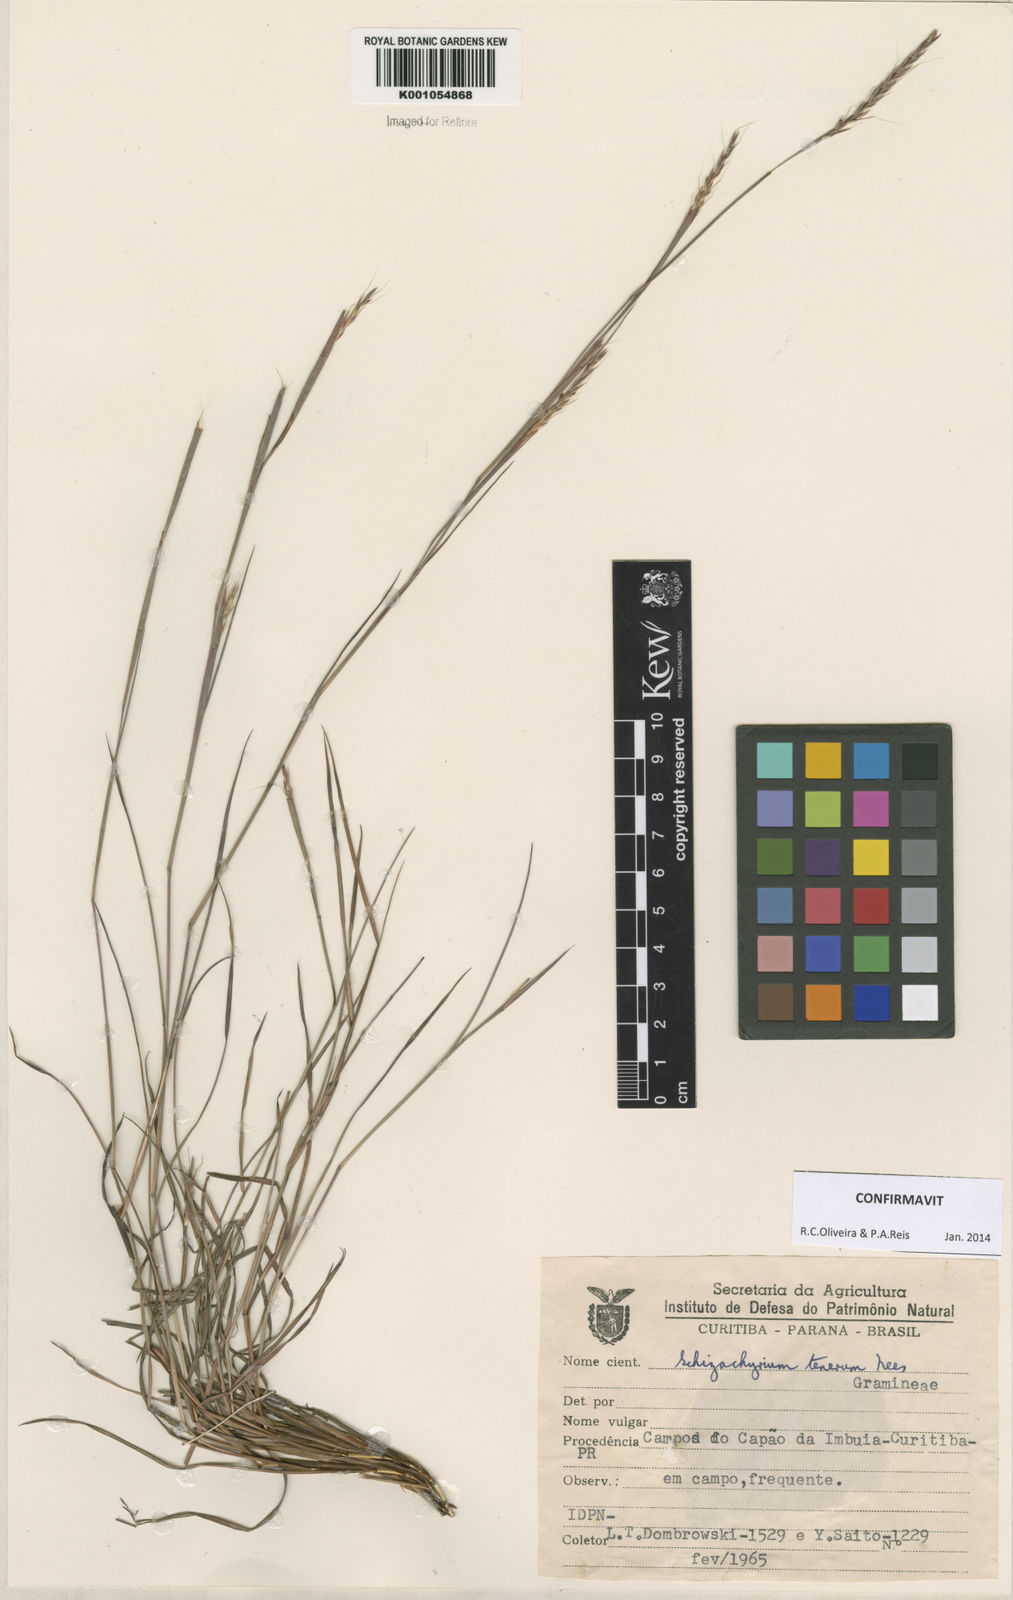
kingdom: Plantae
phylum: Tracheophyta
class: Liliopsida
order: Poales
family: Poaceae
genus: Andropogon
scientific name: Andropogon tener
